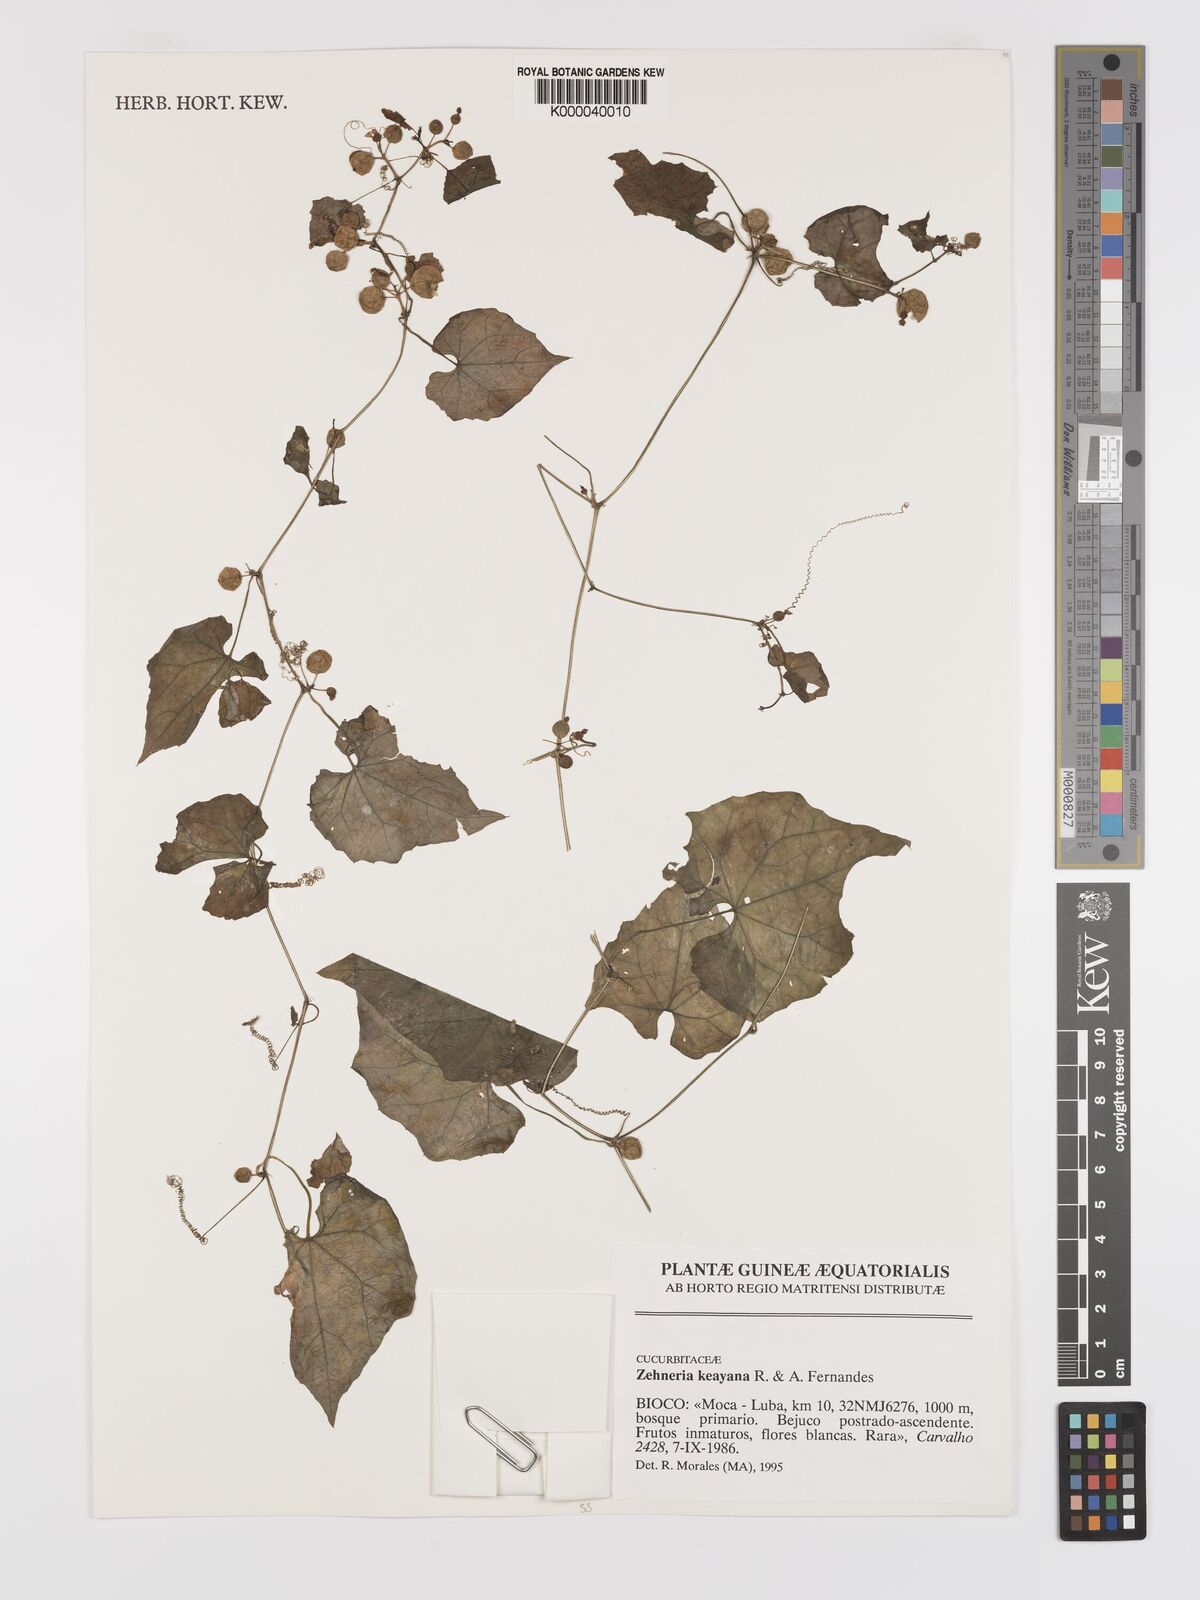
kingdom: Plantae
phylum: Tracheophyta
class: Magnoliopsida
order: Cucurbitales
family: Cucurbitaceae
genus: Zehneria
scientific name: Zehneria keayana
